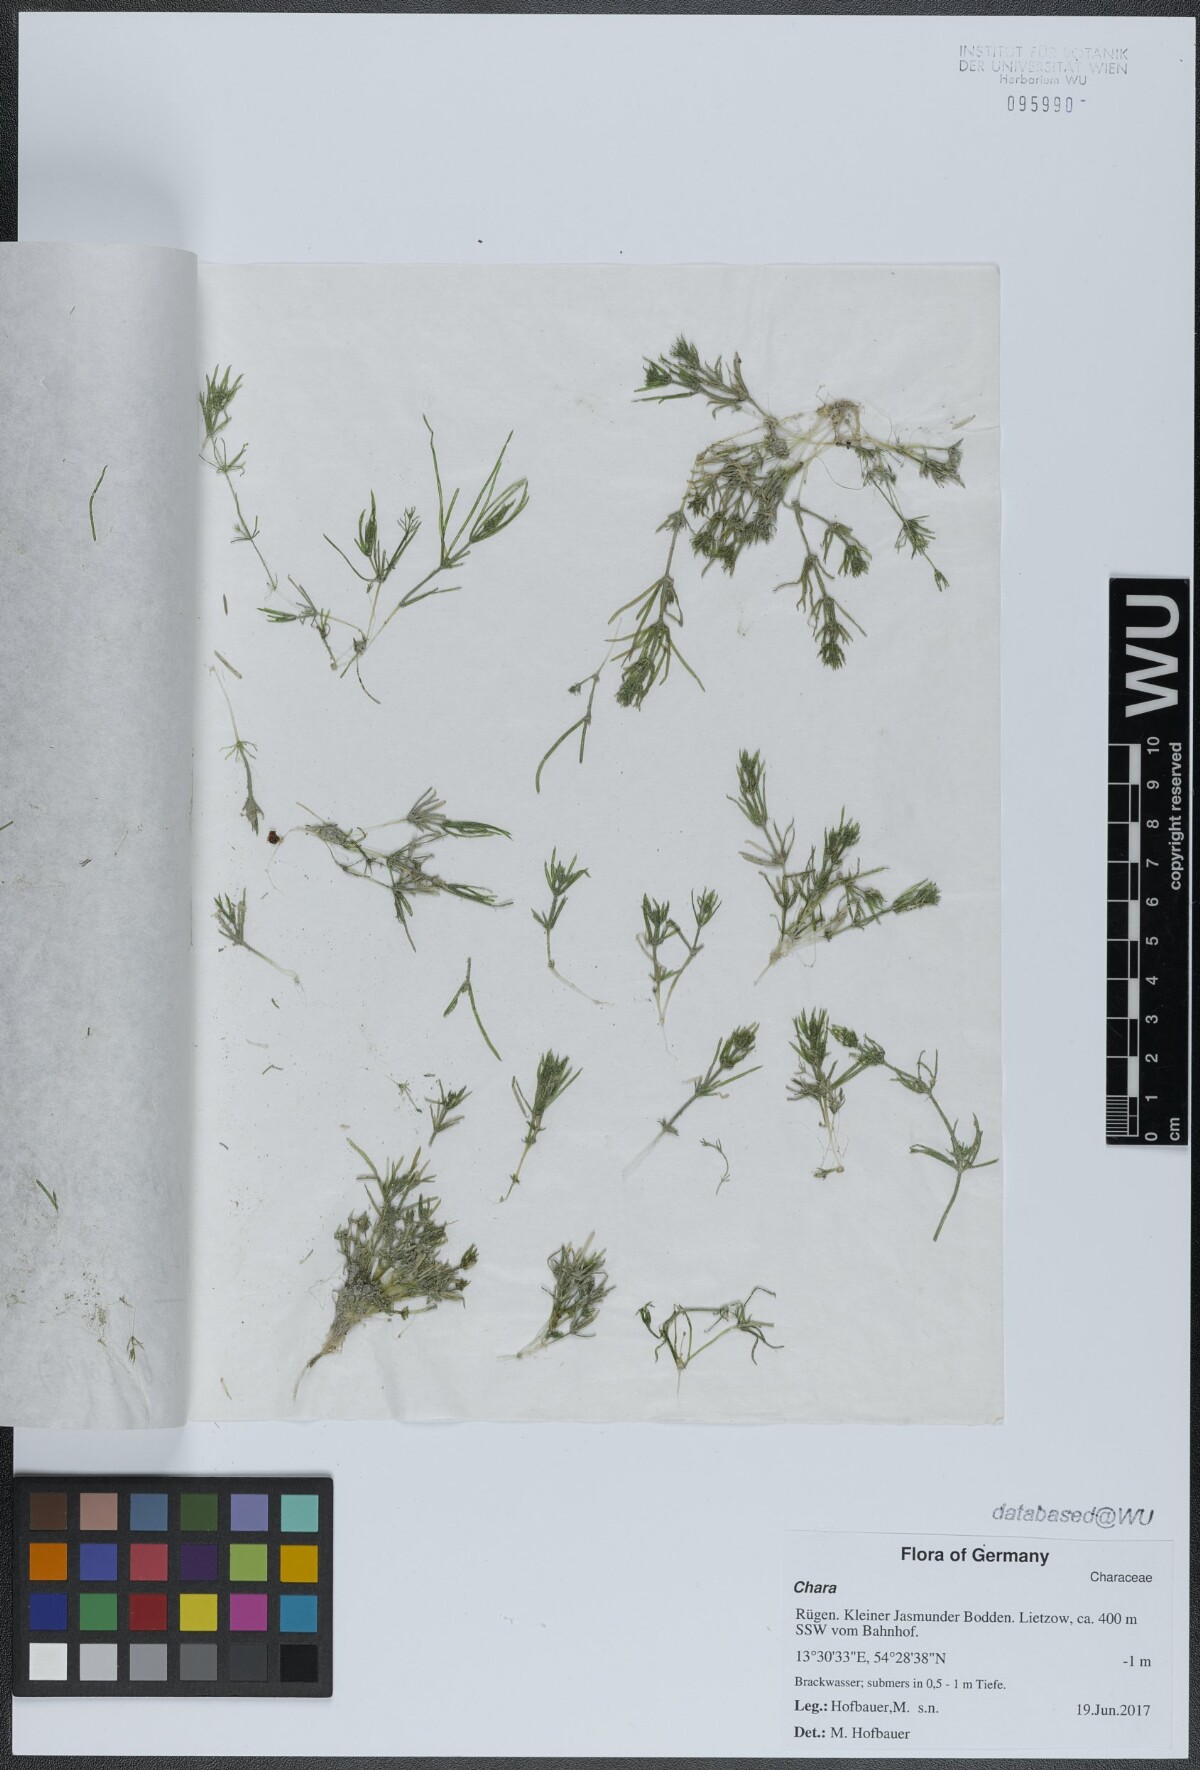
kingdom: Plantae
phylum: Charophyta
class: Charophyceae
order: Charales
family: Characeae
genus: Chara
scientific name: Chara
